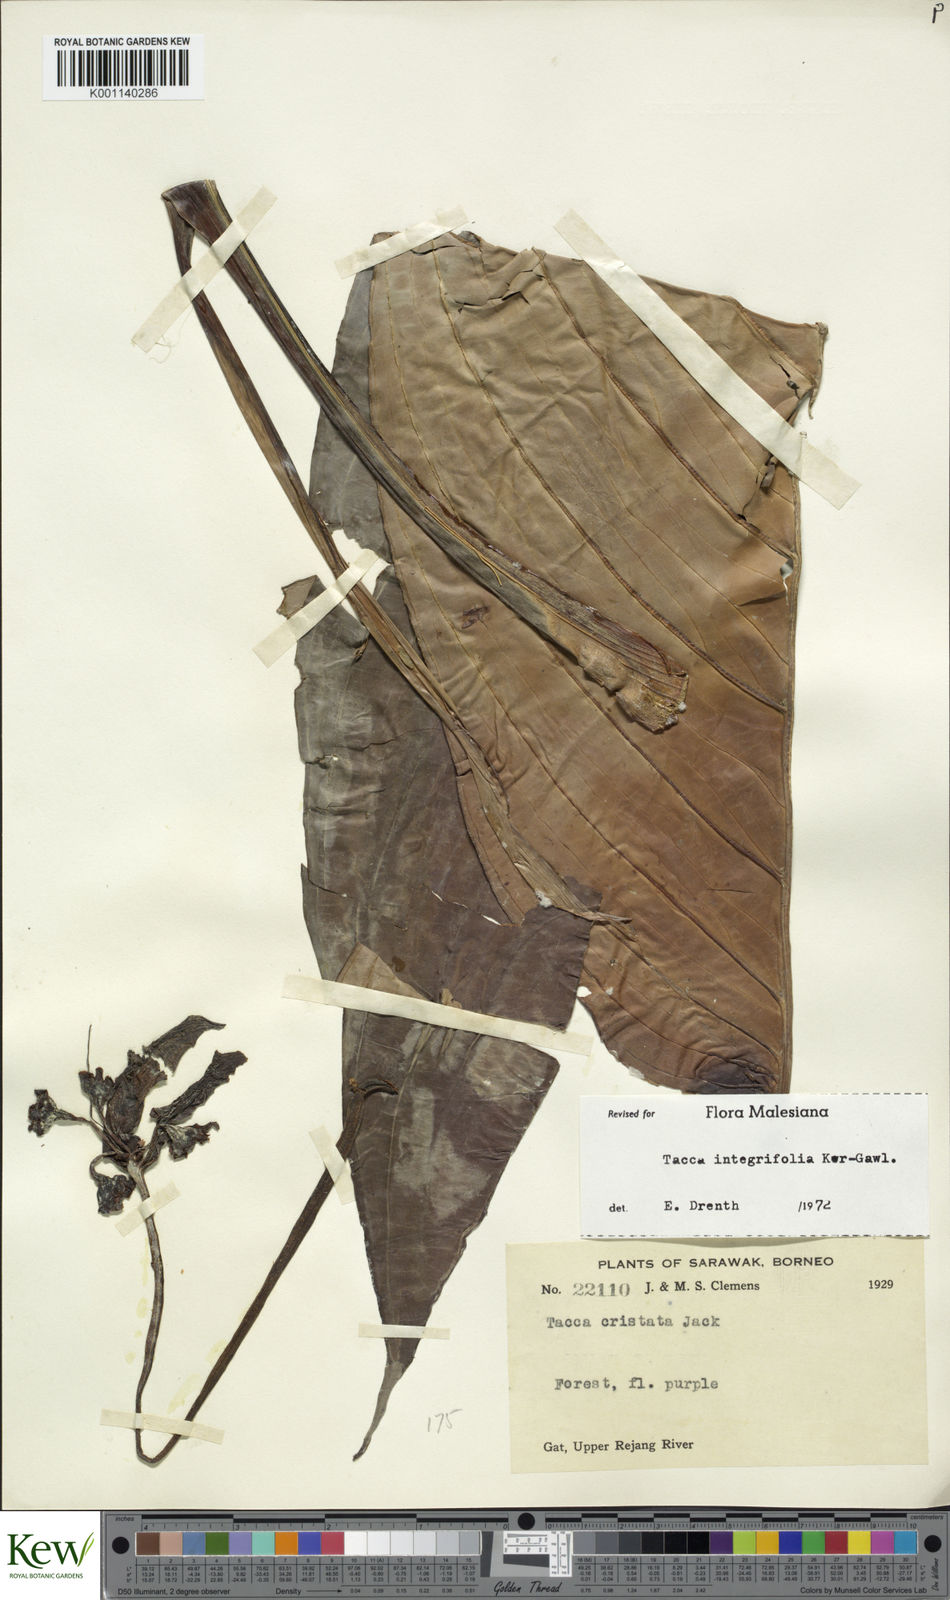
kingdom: Plantae
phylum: Tracheophyta
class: Liliopsida
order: Dioscoreales
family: Dioscoreaceae
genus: Tacca
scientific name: Tacca integrifolia
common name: Batplant
